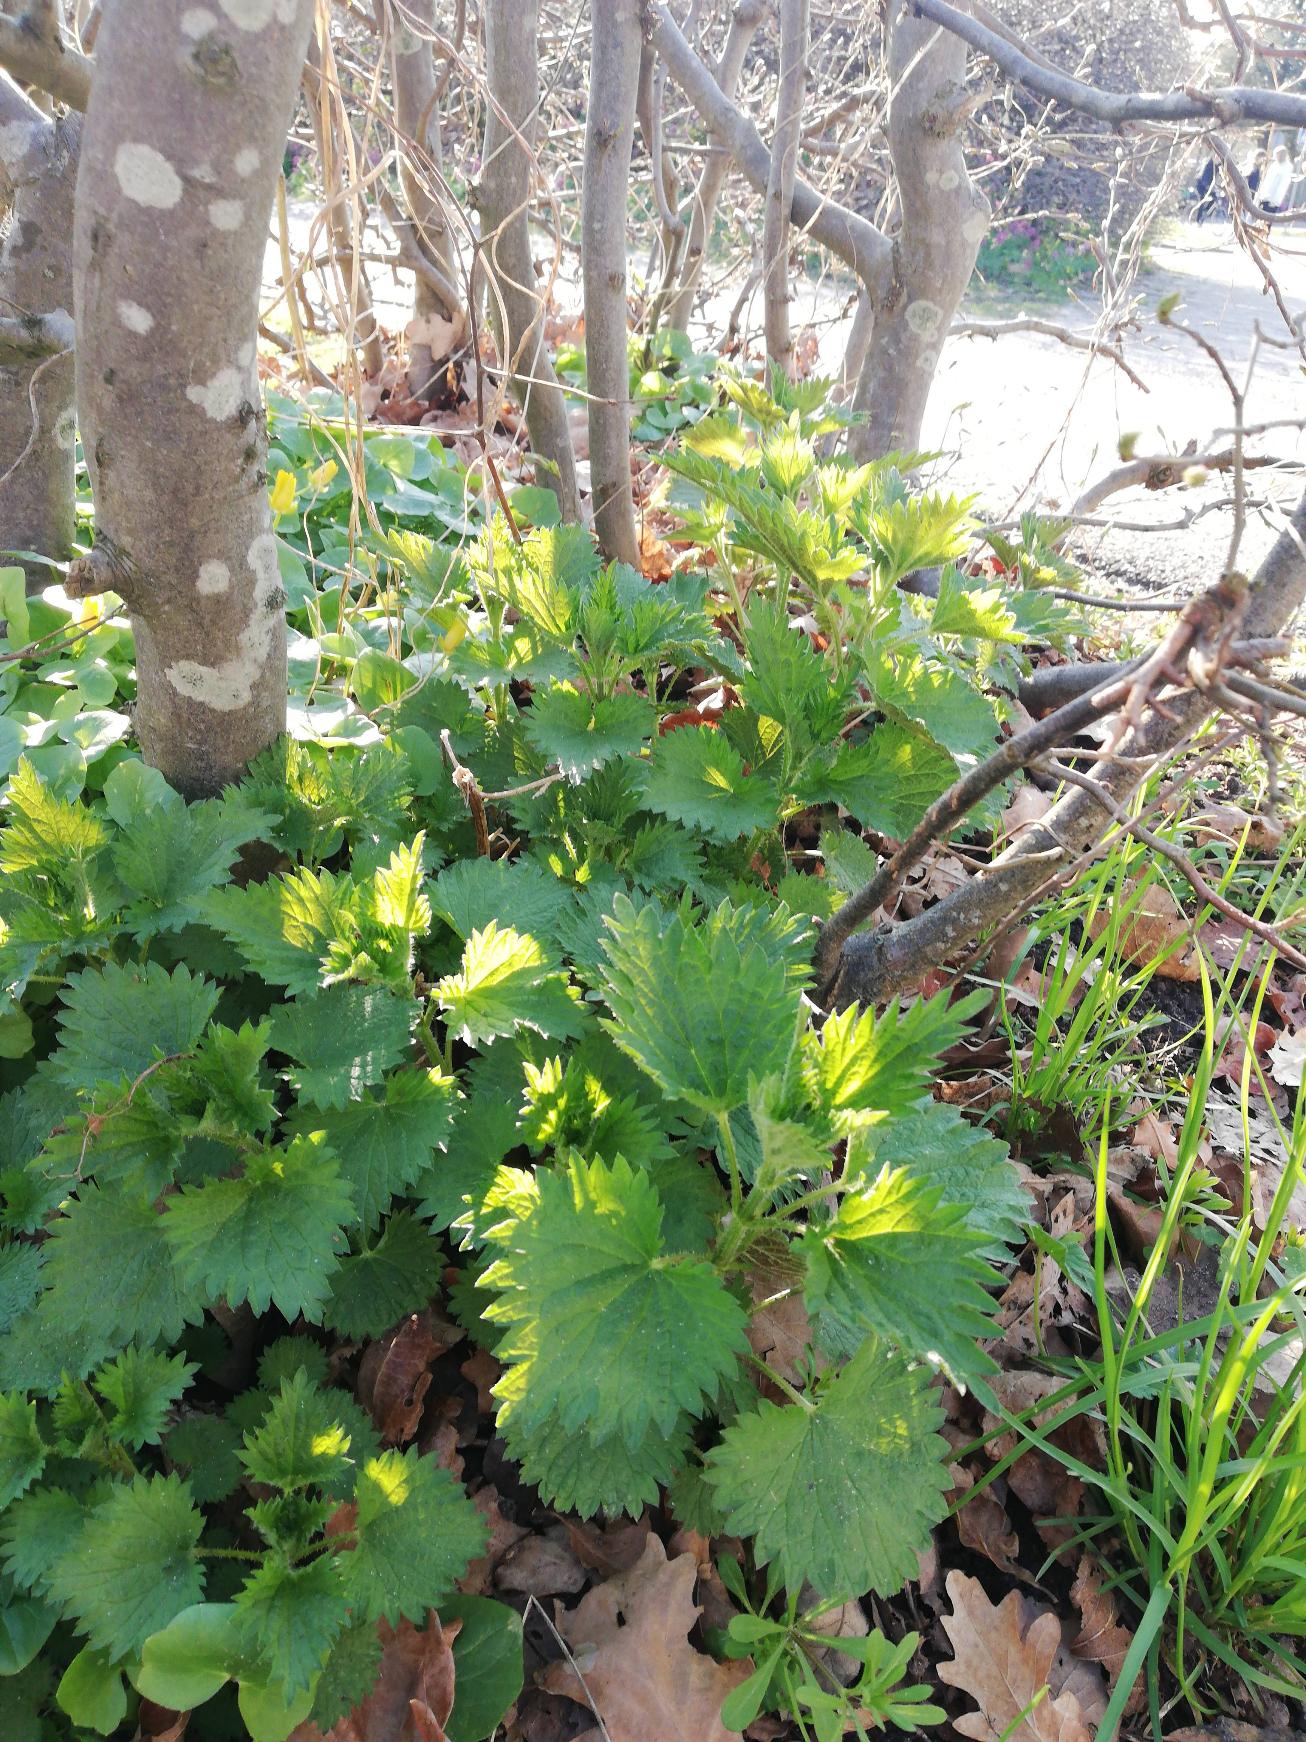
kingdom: Plantae
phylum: Tracheophyta
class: Magnoliopsida
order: Rosales
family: Urticaceae
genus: Urtica
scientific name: Urtica dioica
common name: Stor nælde
